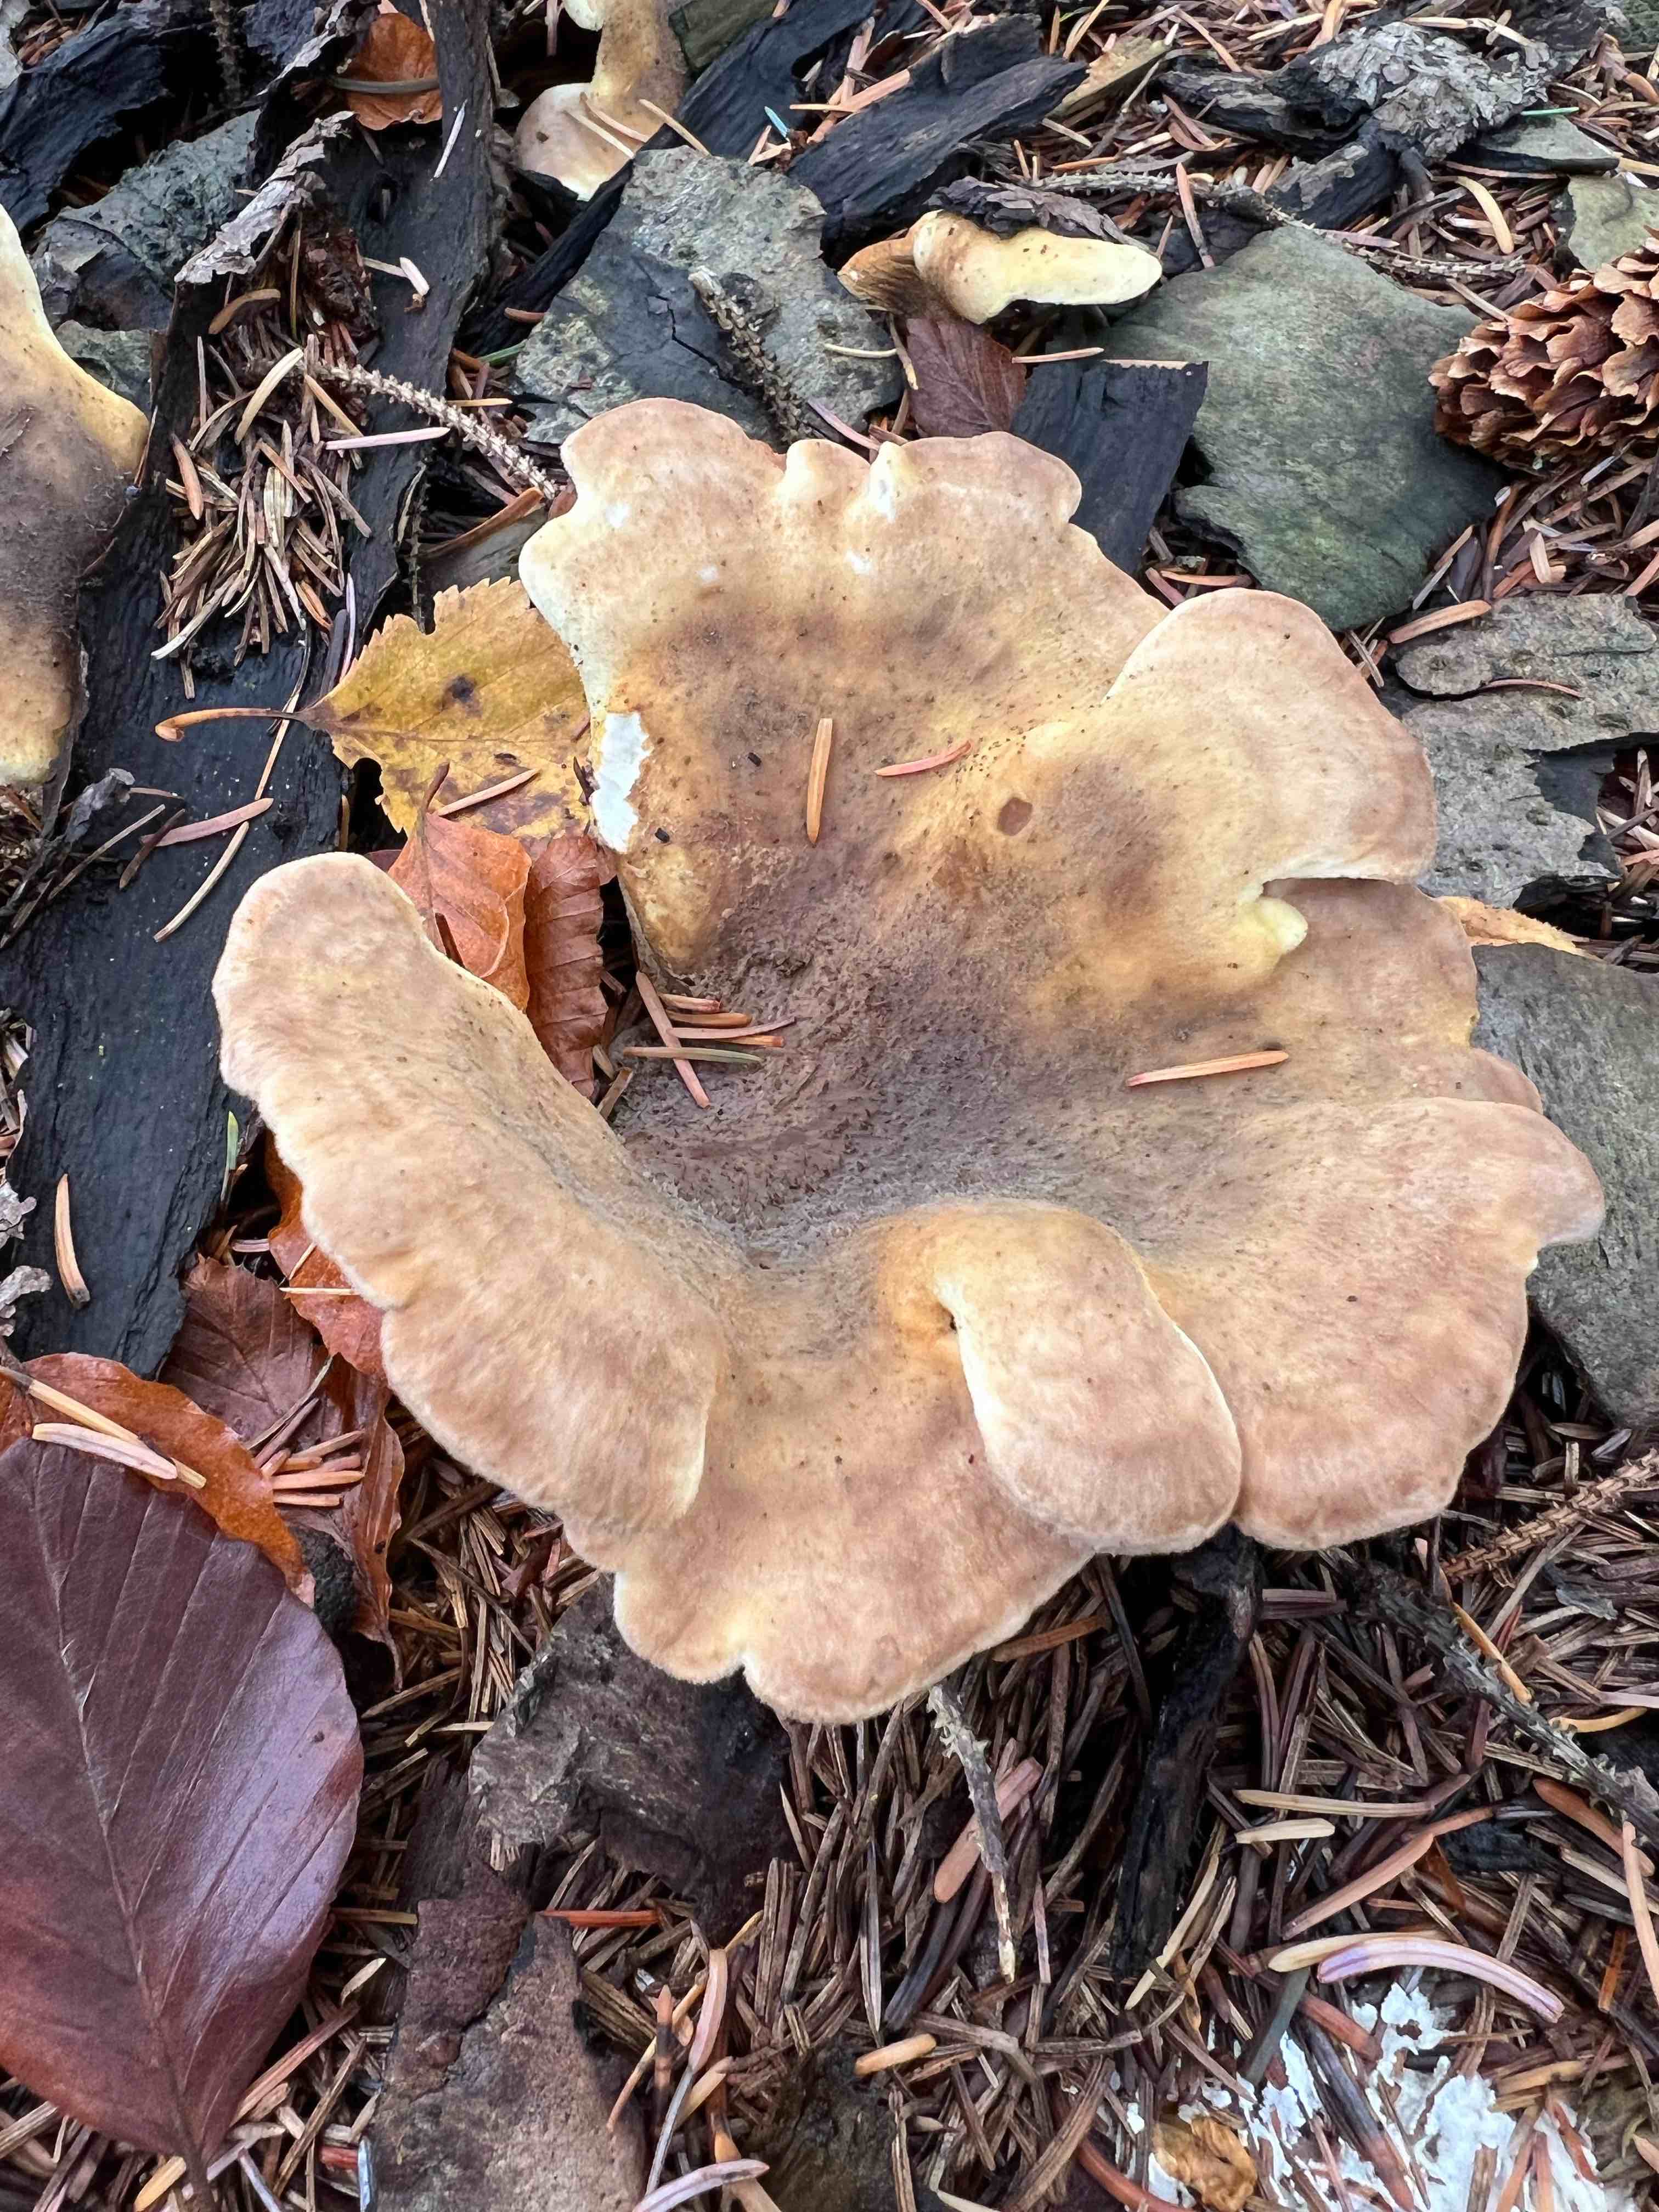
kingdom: Fungi
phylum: Basidiomycota
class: Agaricomycetes
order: Boletales
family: Tapinellaceae
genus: Tapinella
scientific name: Tapinella panuoides
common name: tømmer-viftesvamp
